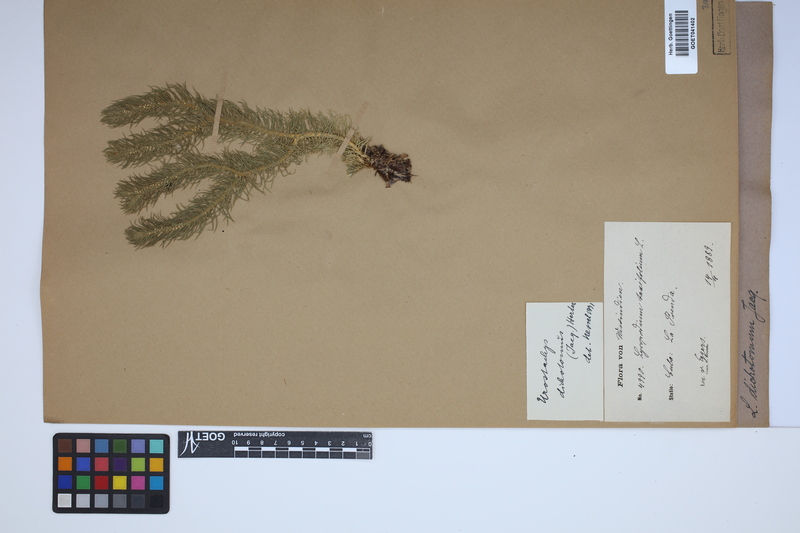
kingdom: Plantae
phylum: Tracheophyta
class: Lycopodiopsida
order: Lycopodiales
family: Lycopodiaceae
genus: Phlegmariurus
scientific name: Phlegmariurus dichotomus
